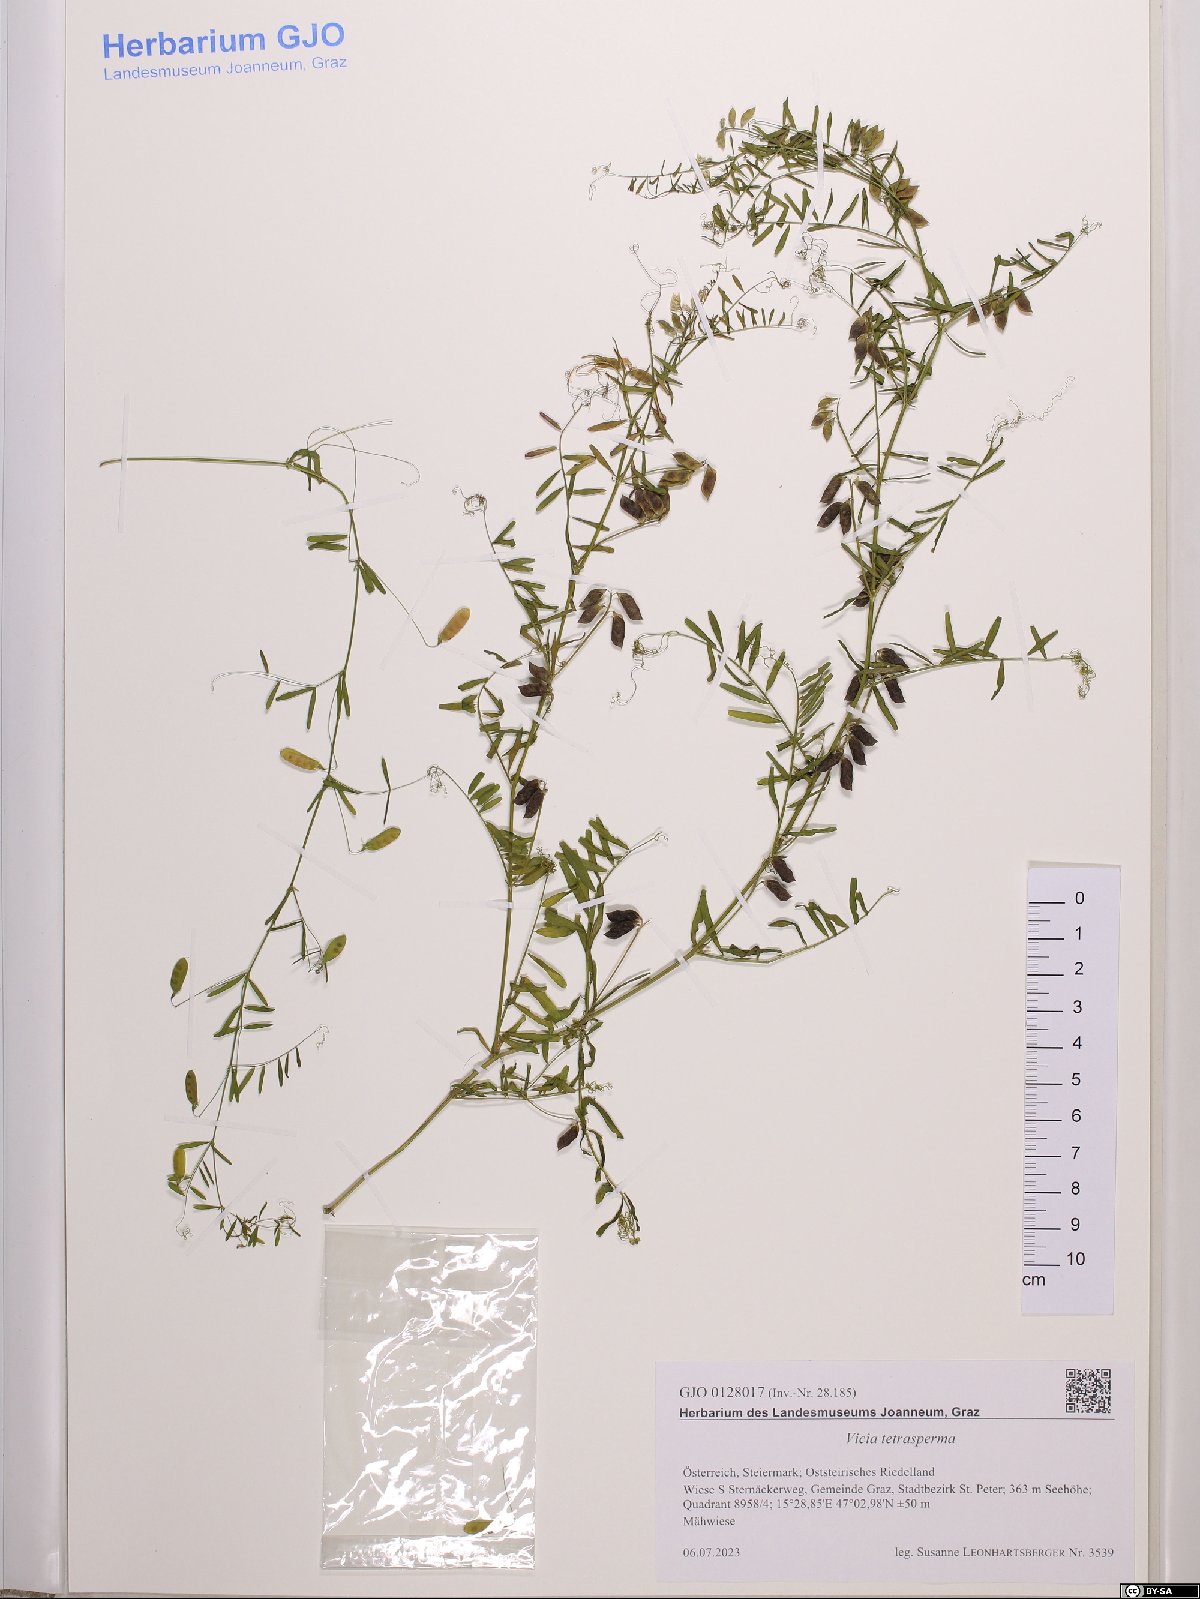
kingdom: Plantae
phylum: Tracheophyta
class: Magnoliopsida
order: Fabales
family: Fabaceae
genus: Vicia
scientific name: Vicia tetrasperma
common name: Smooth tare
